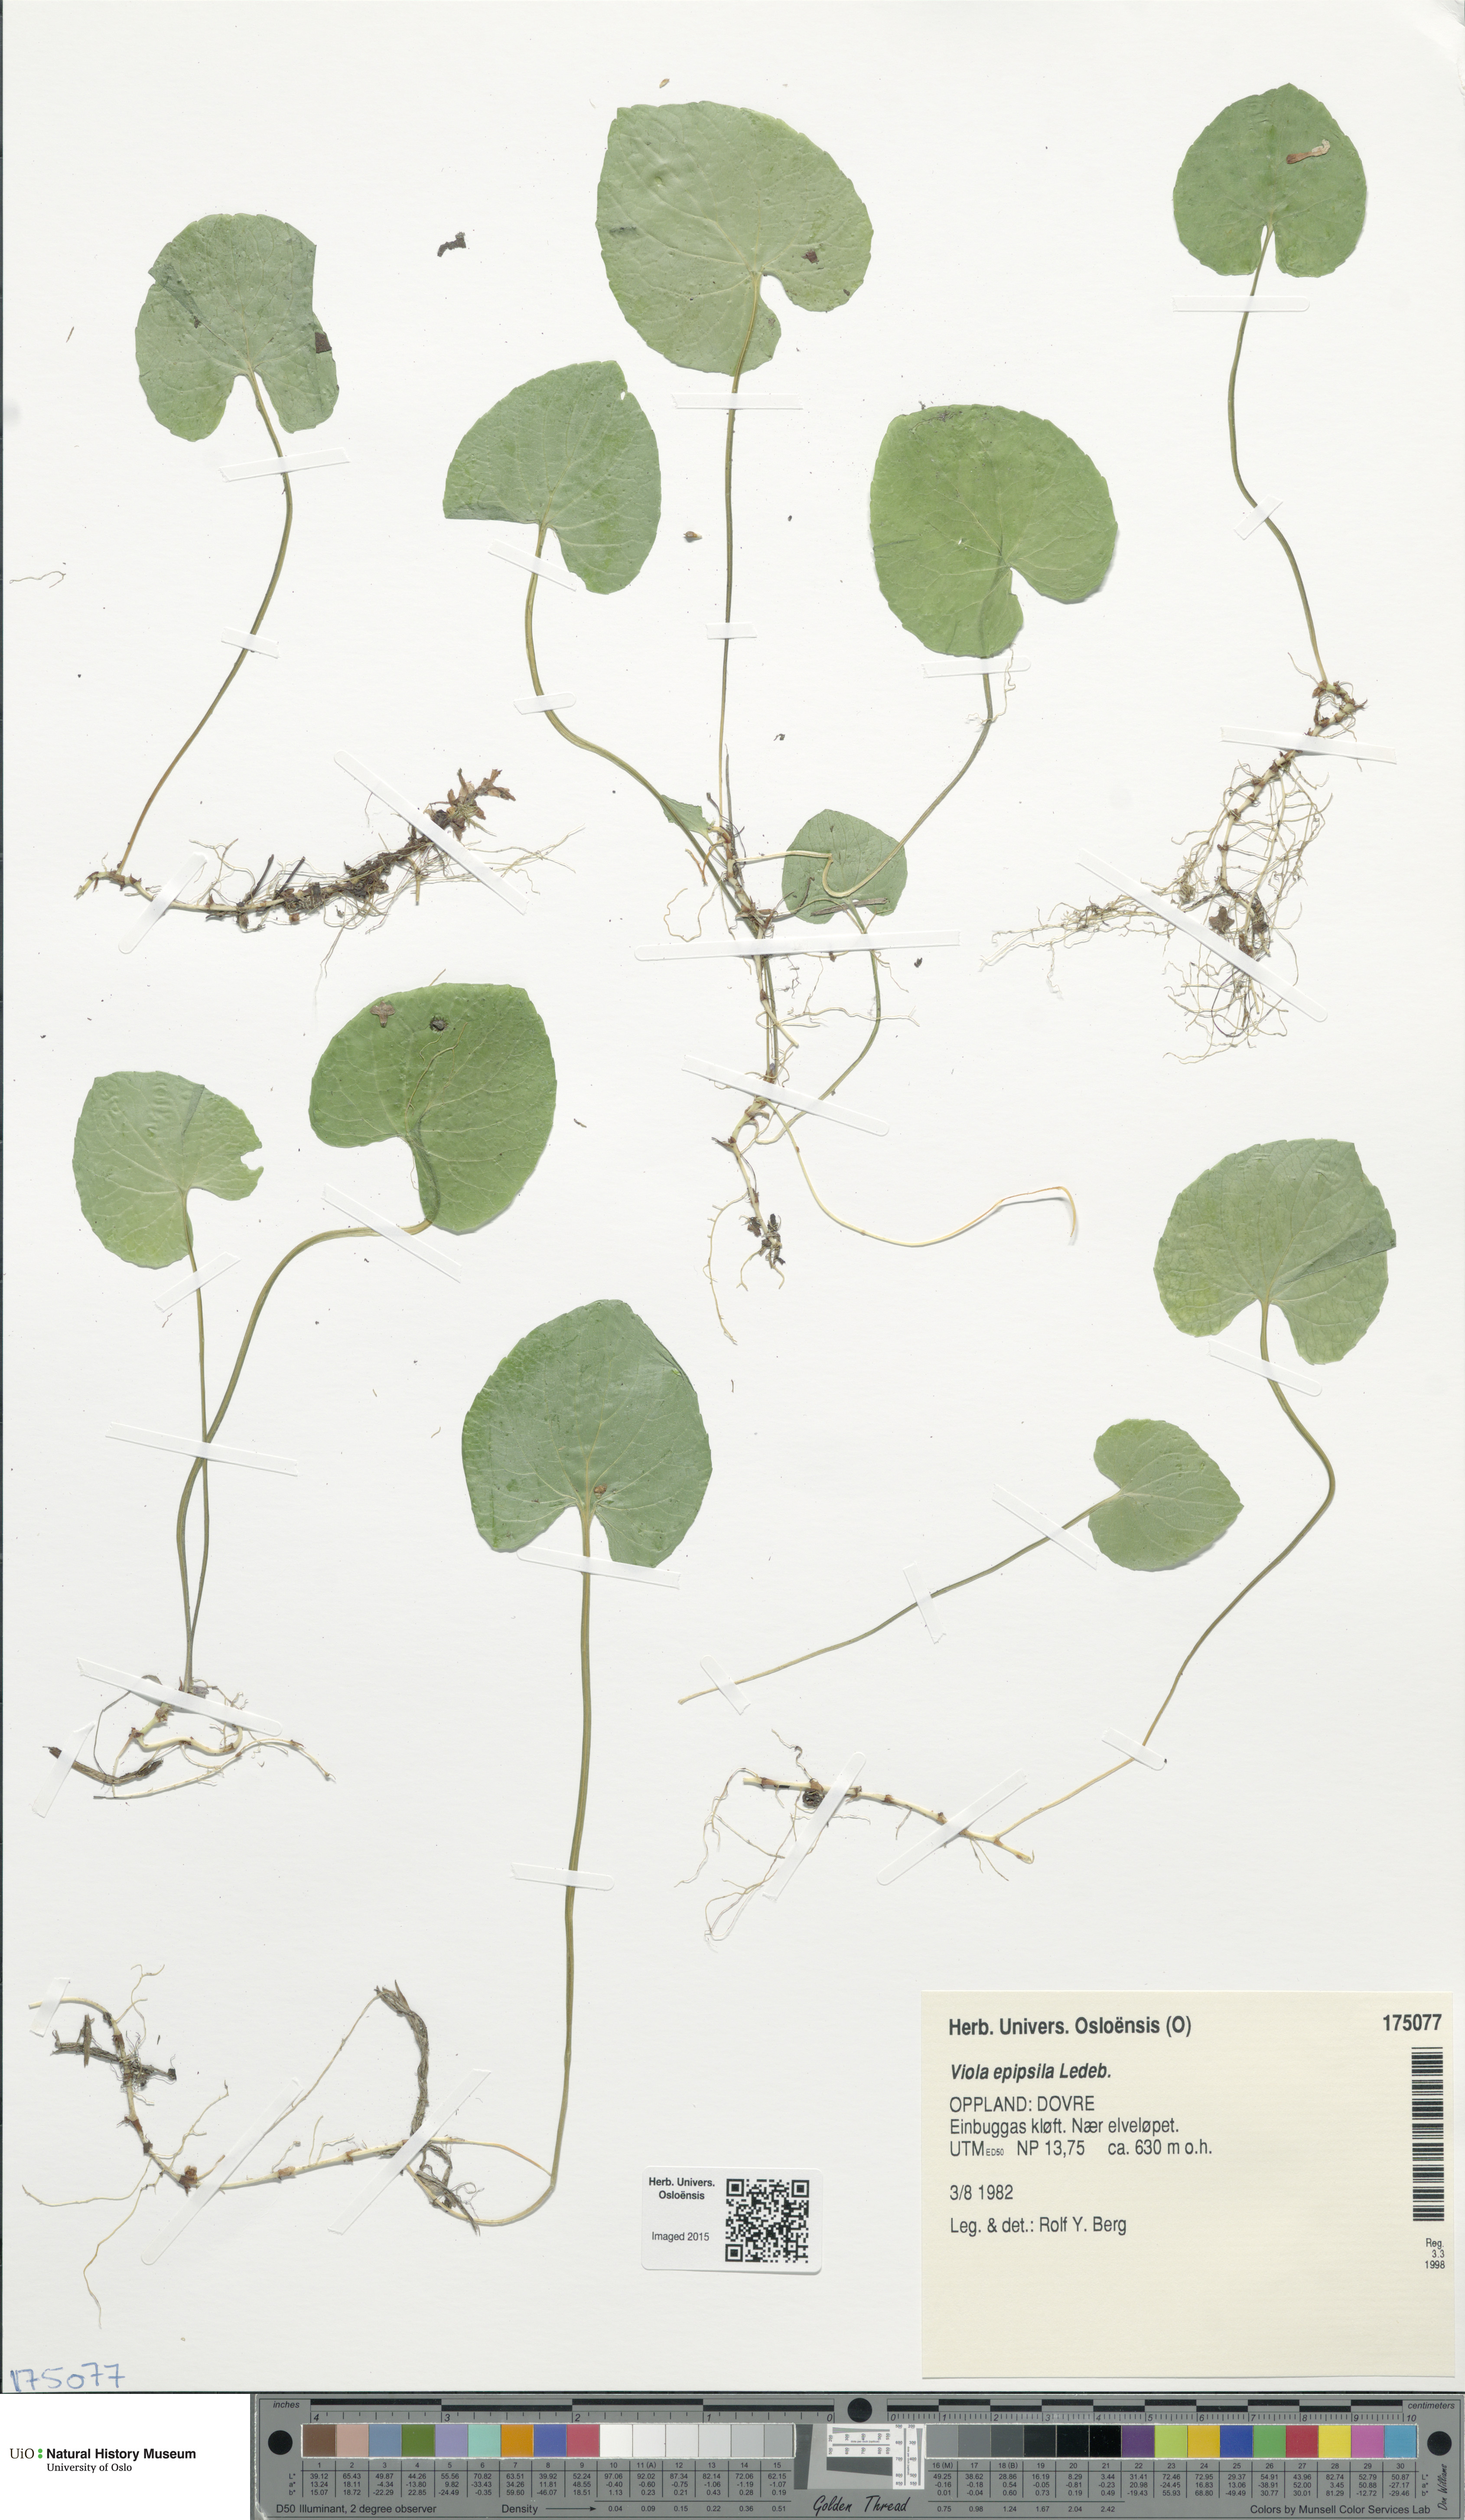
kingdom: Plantae
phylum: Tracheophyta
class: Magnoliopsida
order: Malpighiales
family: Violaceae
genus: Viola
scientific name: Viola epipsila
